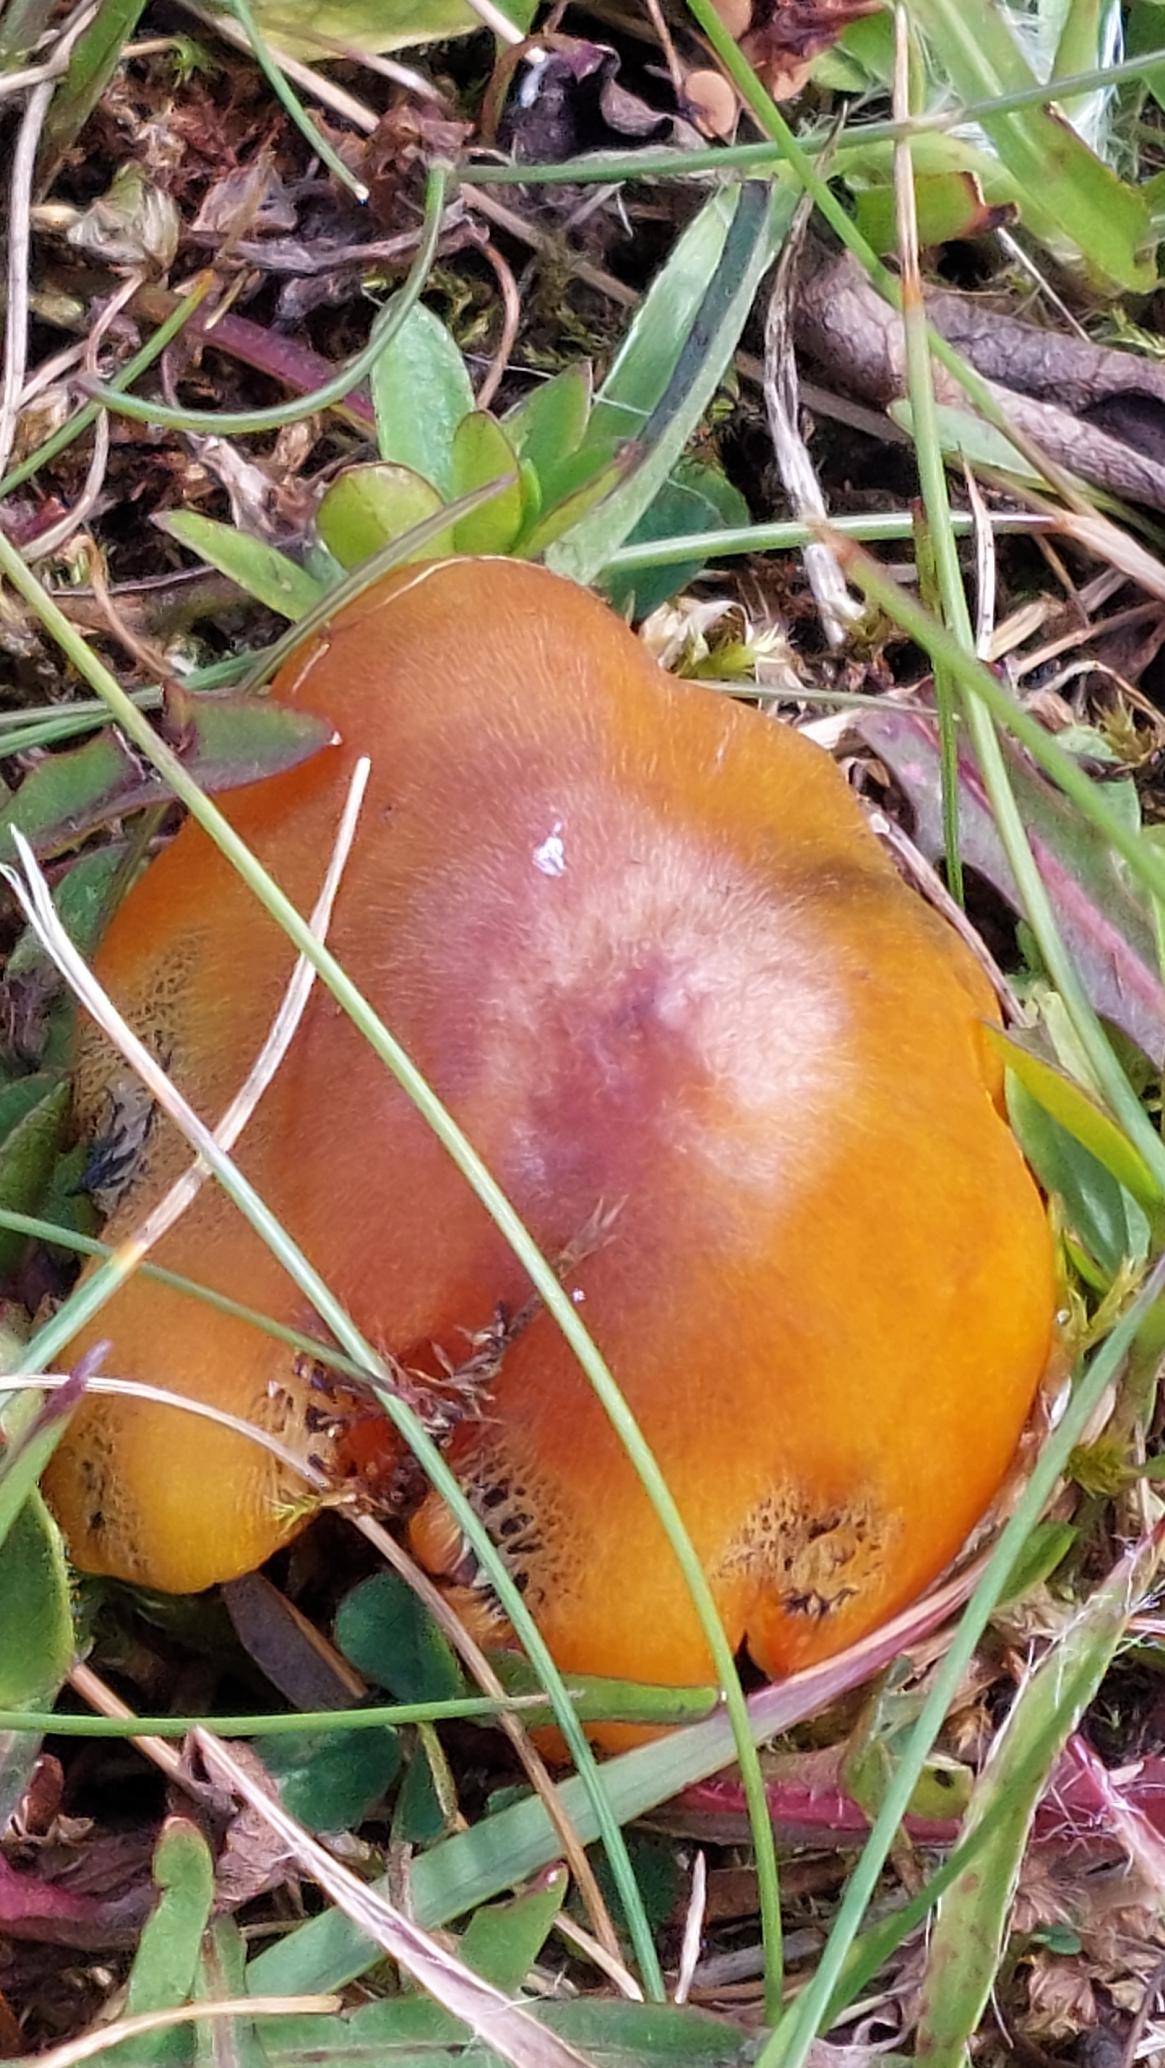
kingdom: Fungi
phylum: Basidiomycota
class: Agaricomycetes
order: Agaricales
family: Hygrophoraceae
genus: Hygrocybe
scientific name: Hygrocybe conica
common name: Kegle-vokshat
